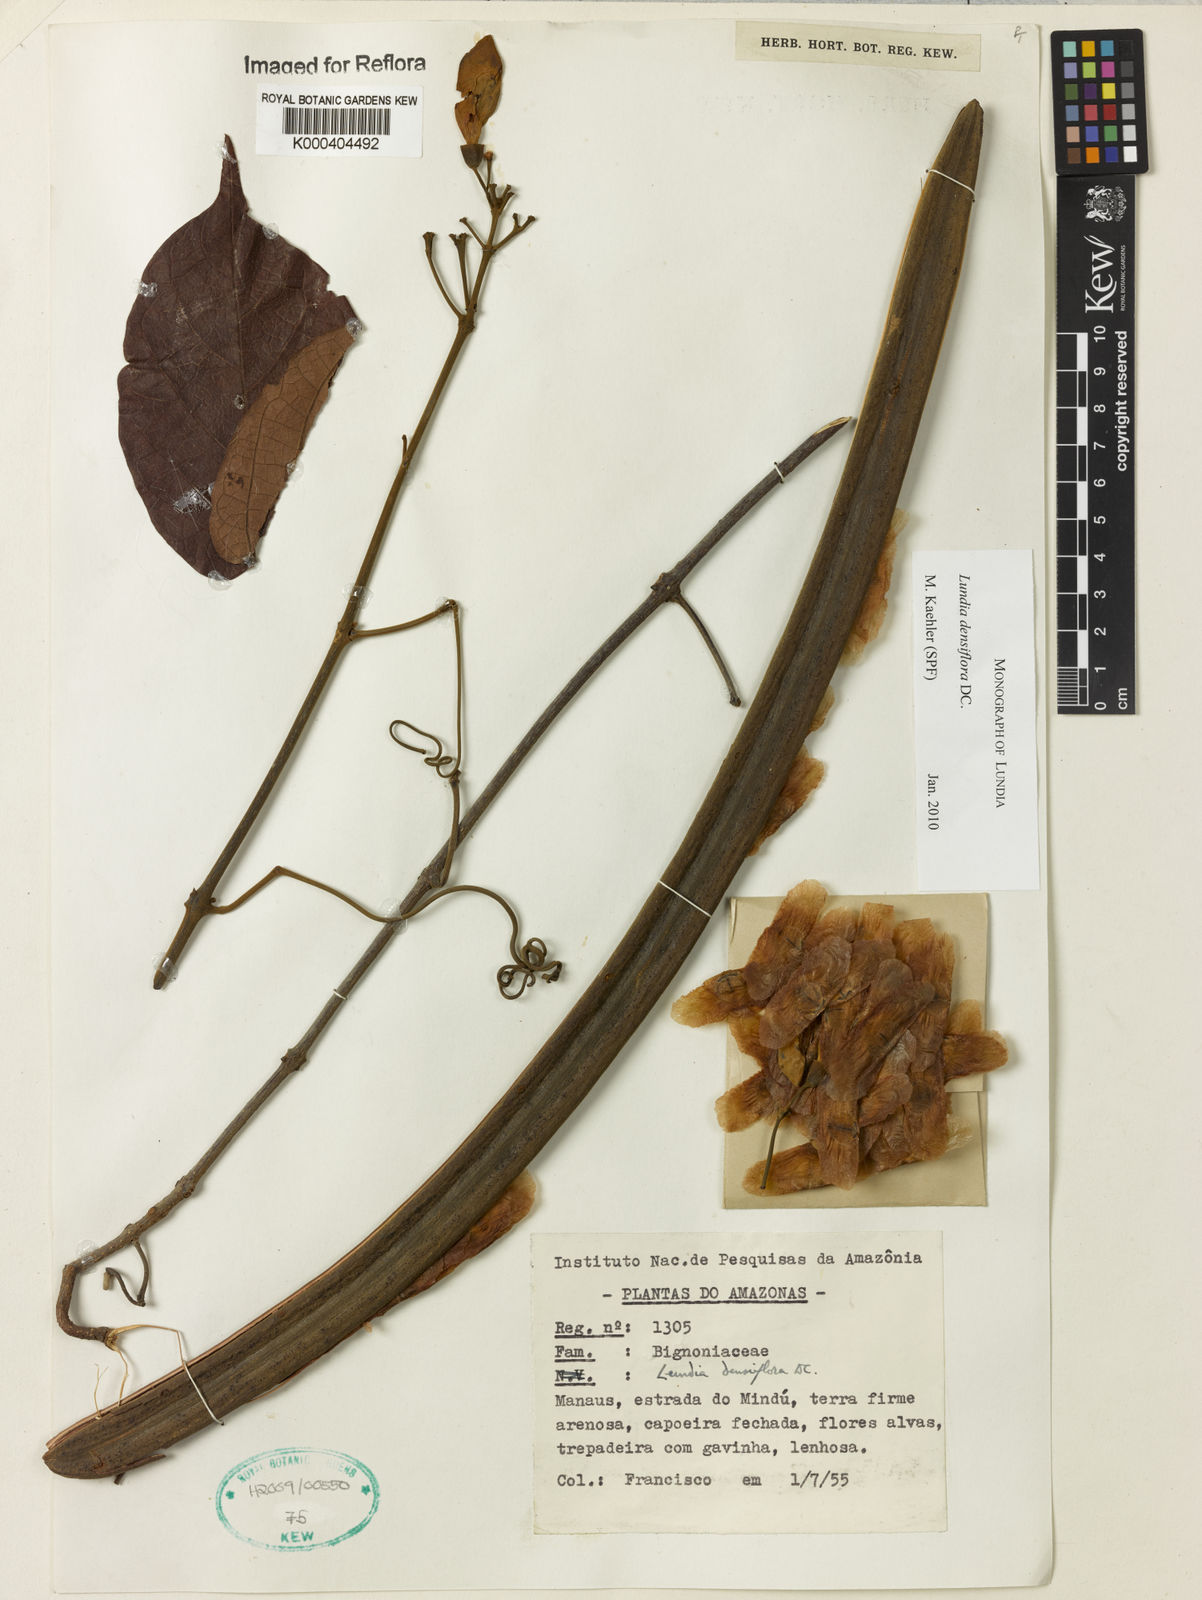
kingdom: Plantae
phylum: Tracheophyta
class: Magnoliopsida
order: Lamiales
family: Bignoniaceae
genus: Lundia
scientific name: Lundia densiflora
